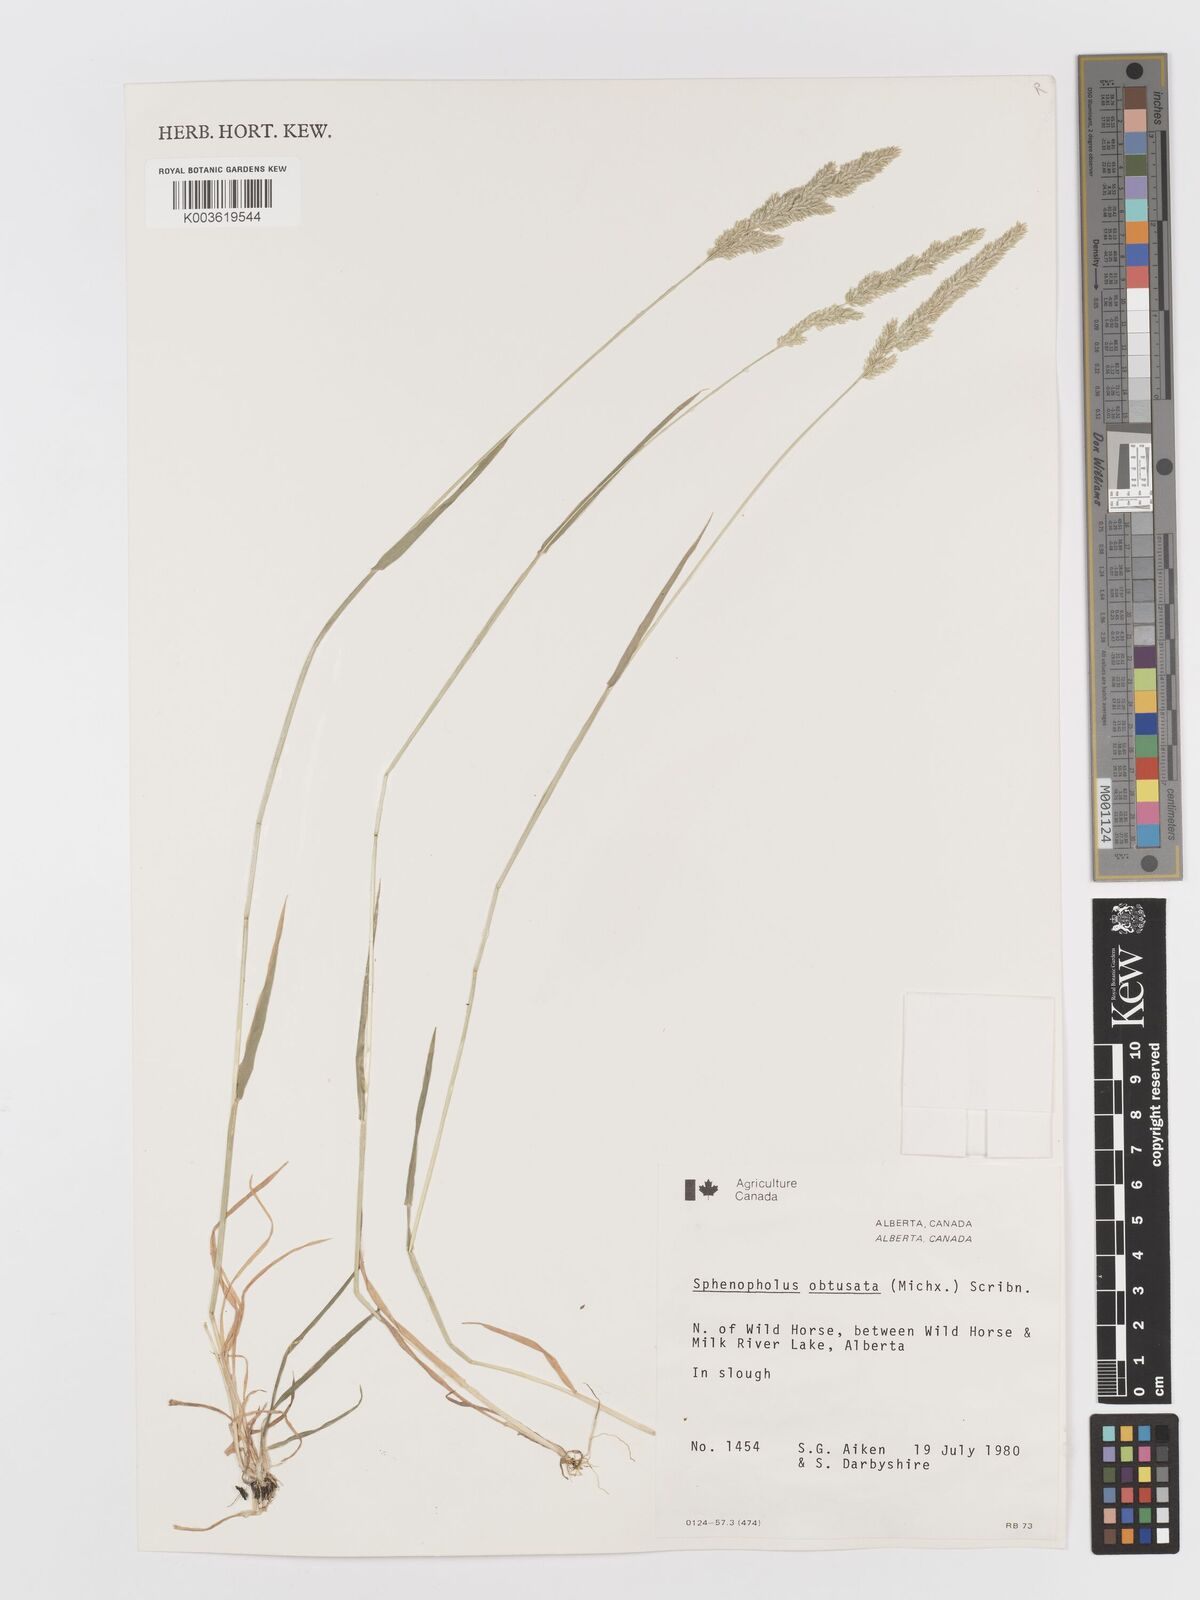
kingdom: Plantae
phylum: Tracheophyta
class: Liliopsida
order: Poales
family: Poaceae
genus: Sphenopholis
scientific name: Sphenopholis obtusata
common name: Prairie grass
